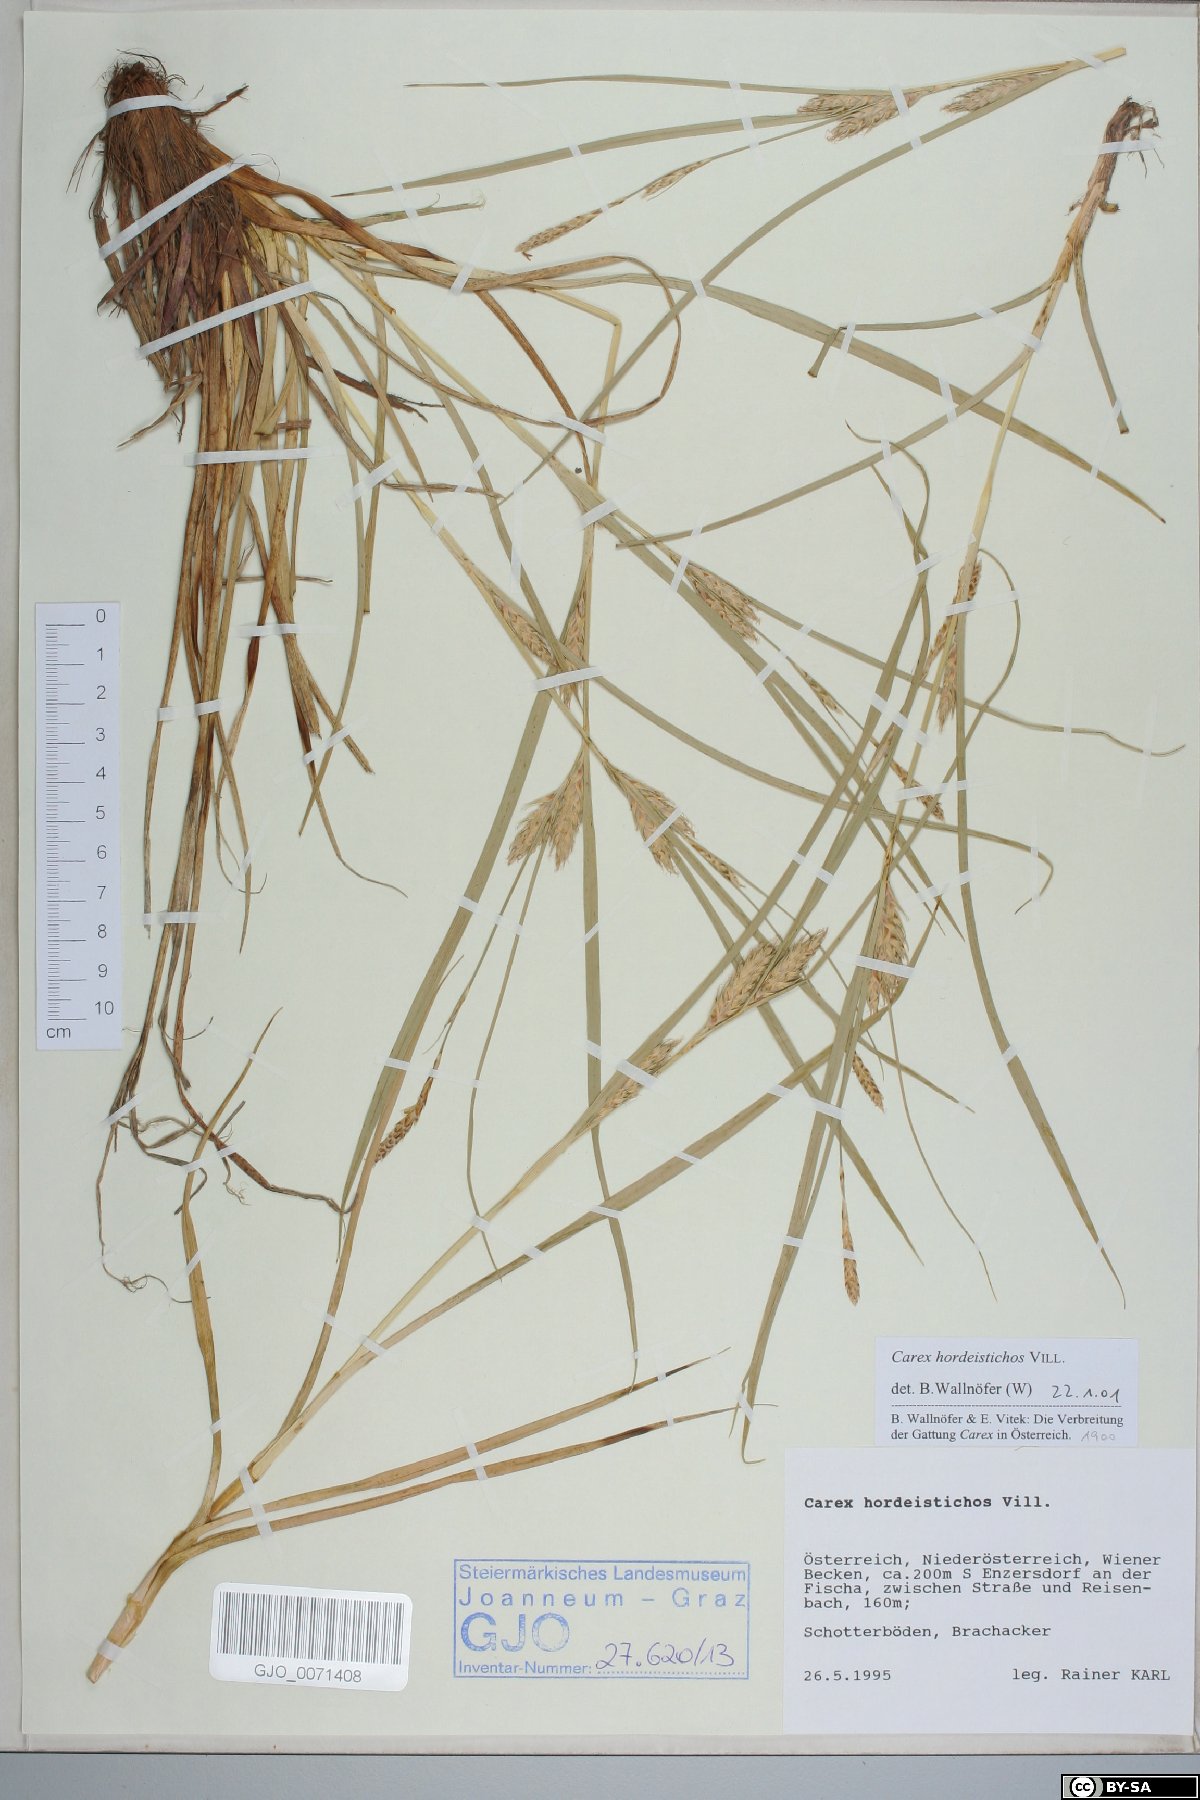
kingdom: Plantae
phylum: Tracheophyta
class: Liliopsida
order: Poales
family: Cyperaceae
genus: Carex
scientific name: Carex hordeistichos
